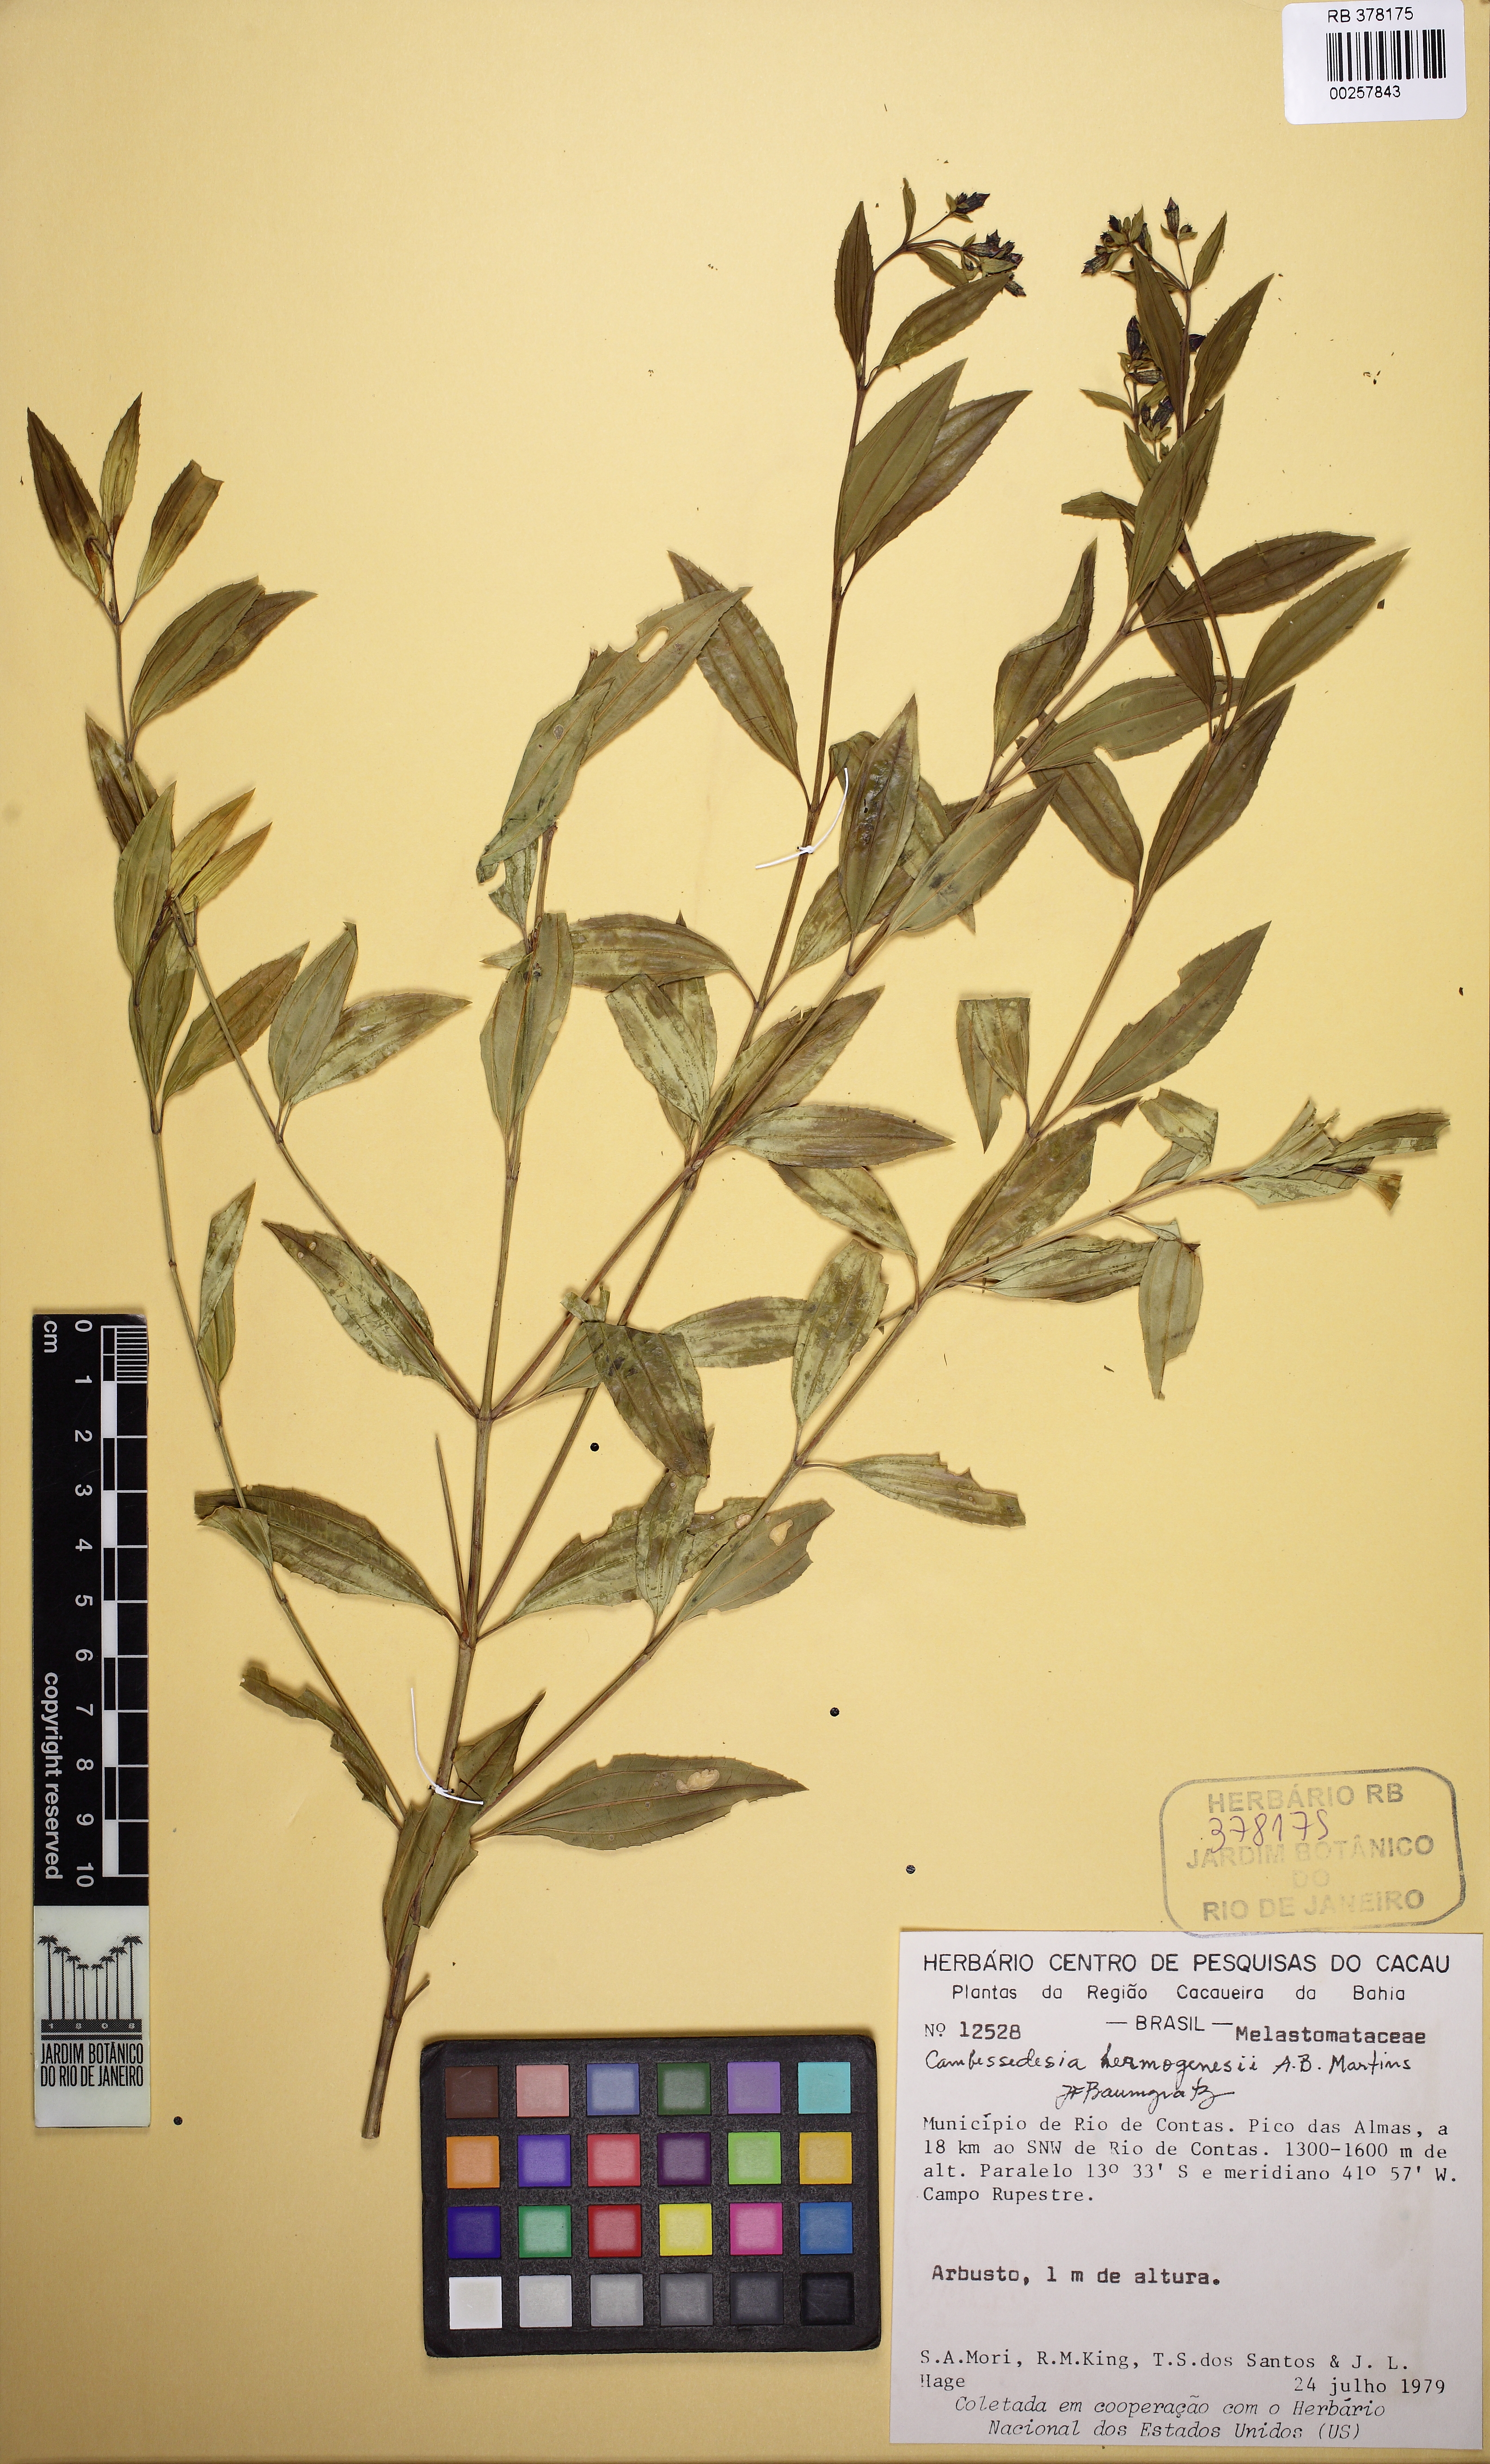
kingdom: Plantae
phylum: Tracheophyta
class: Magnoliopsida
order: Myrtales
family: Melastomataceae
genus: Cambessedesia
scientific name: Cambessedesia hermogenesii
